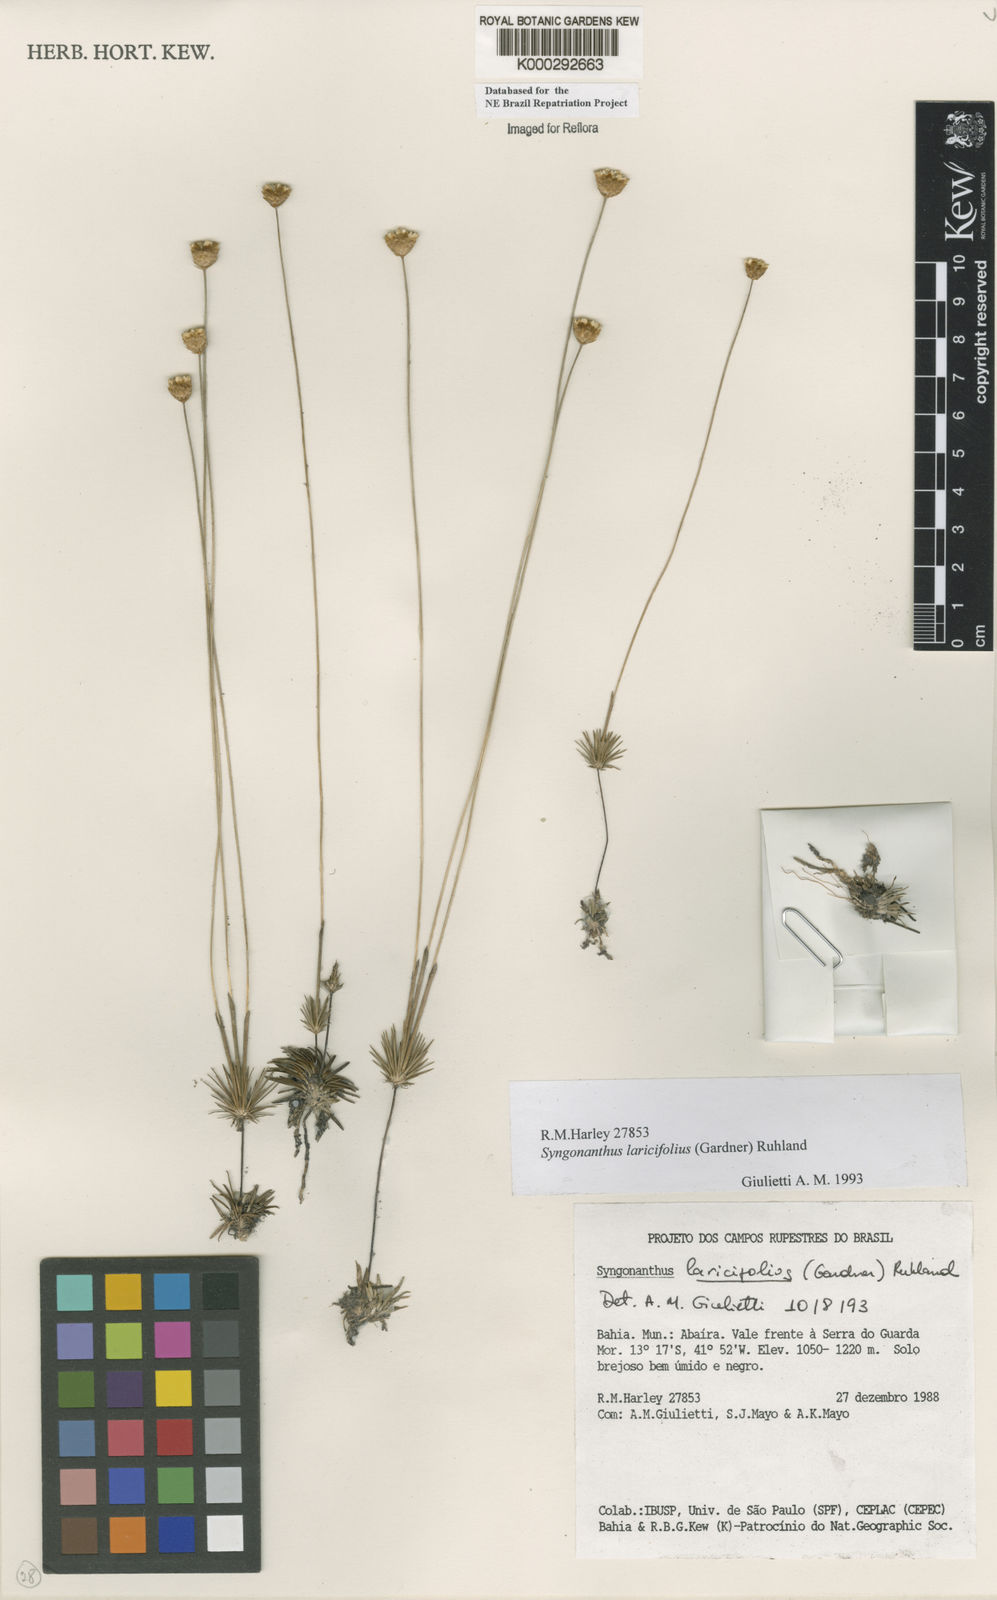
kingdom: Plantae
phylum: Tracheophyta
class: Liliopsida
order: Poales
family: Eriocaulaceae
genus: Syngonanthus
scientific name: Syngonanthus laricifolius
